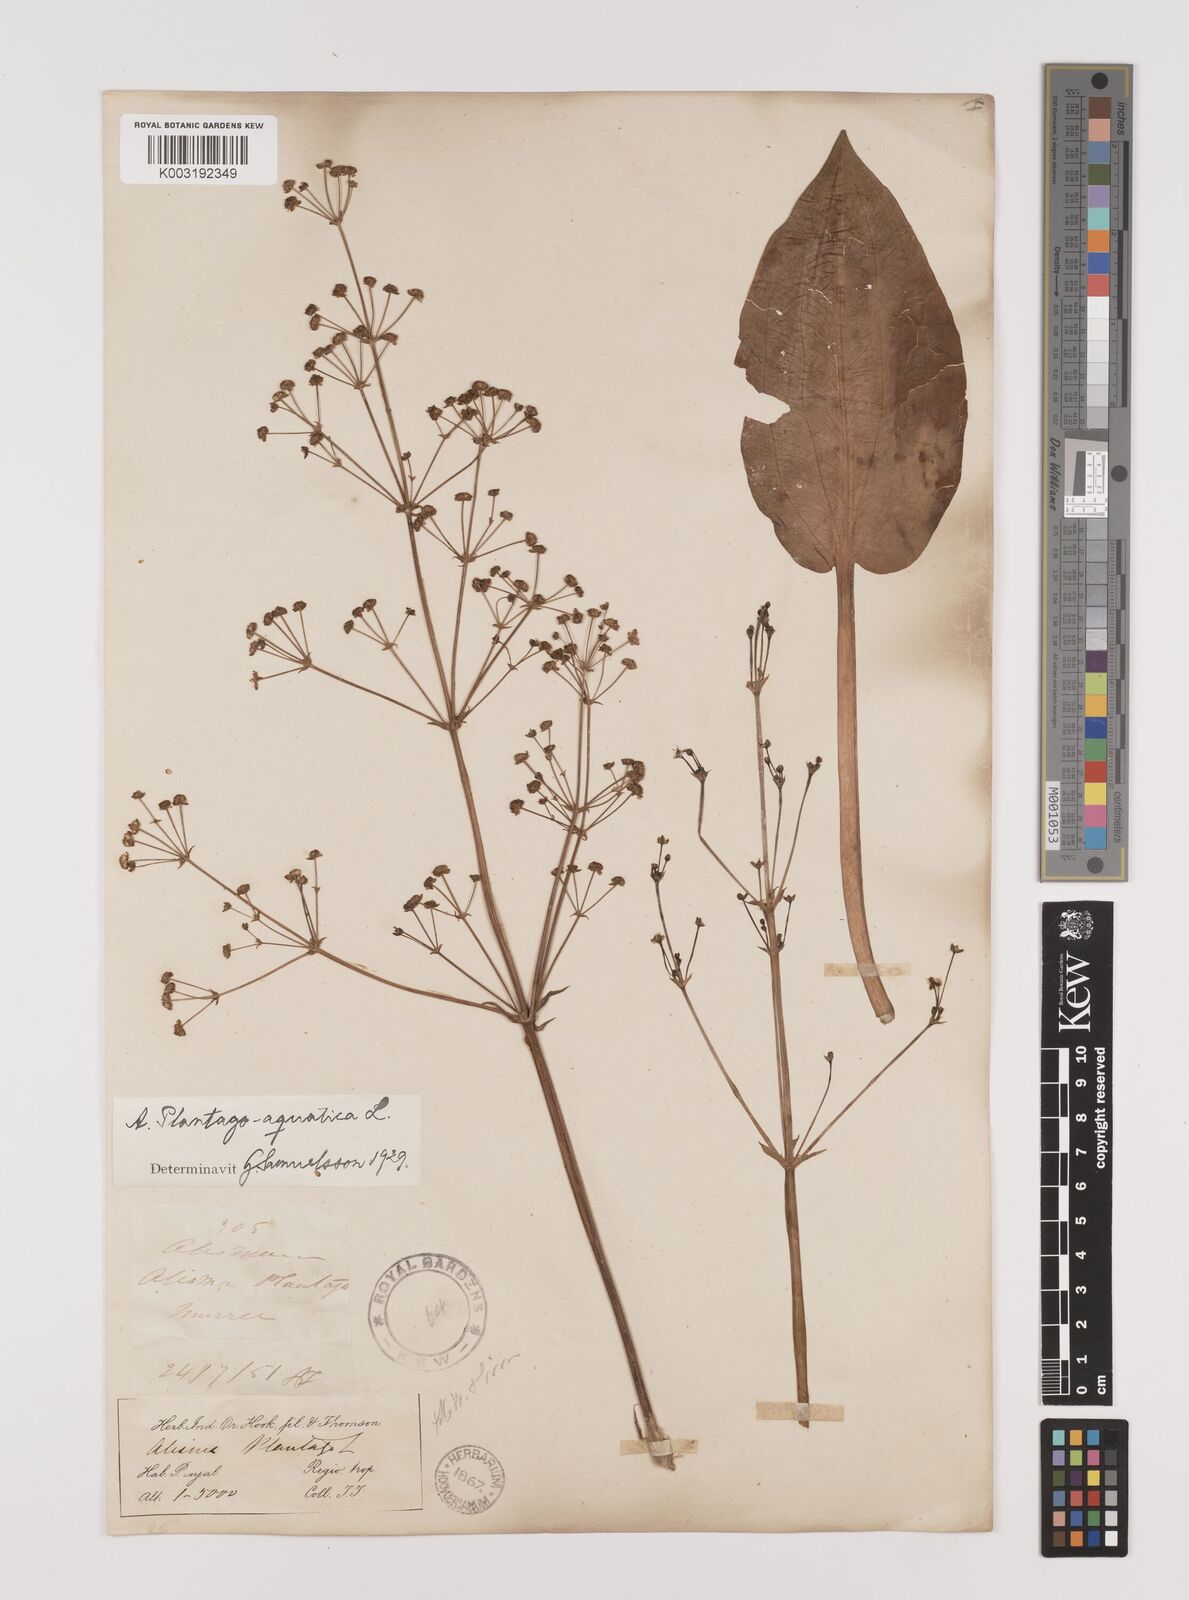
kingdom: Plantae
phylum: Tracheophyta
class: Liliopsida
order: Alismatales
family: Alismataceae
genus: Alisma
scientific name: Alisma plantago-aquatica
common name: Water-plantain
